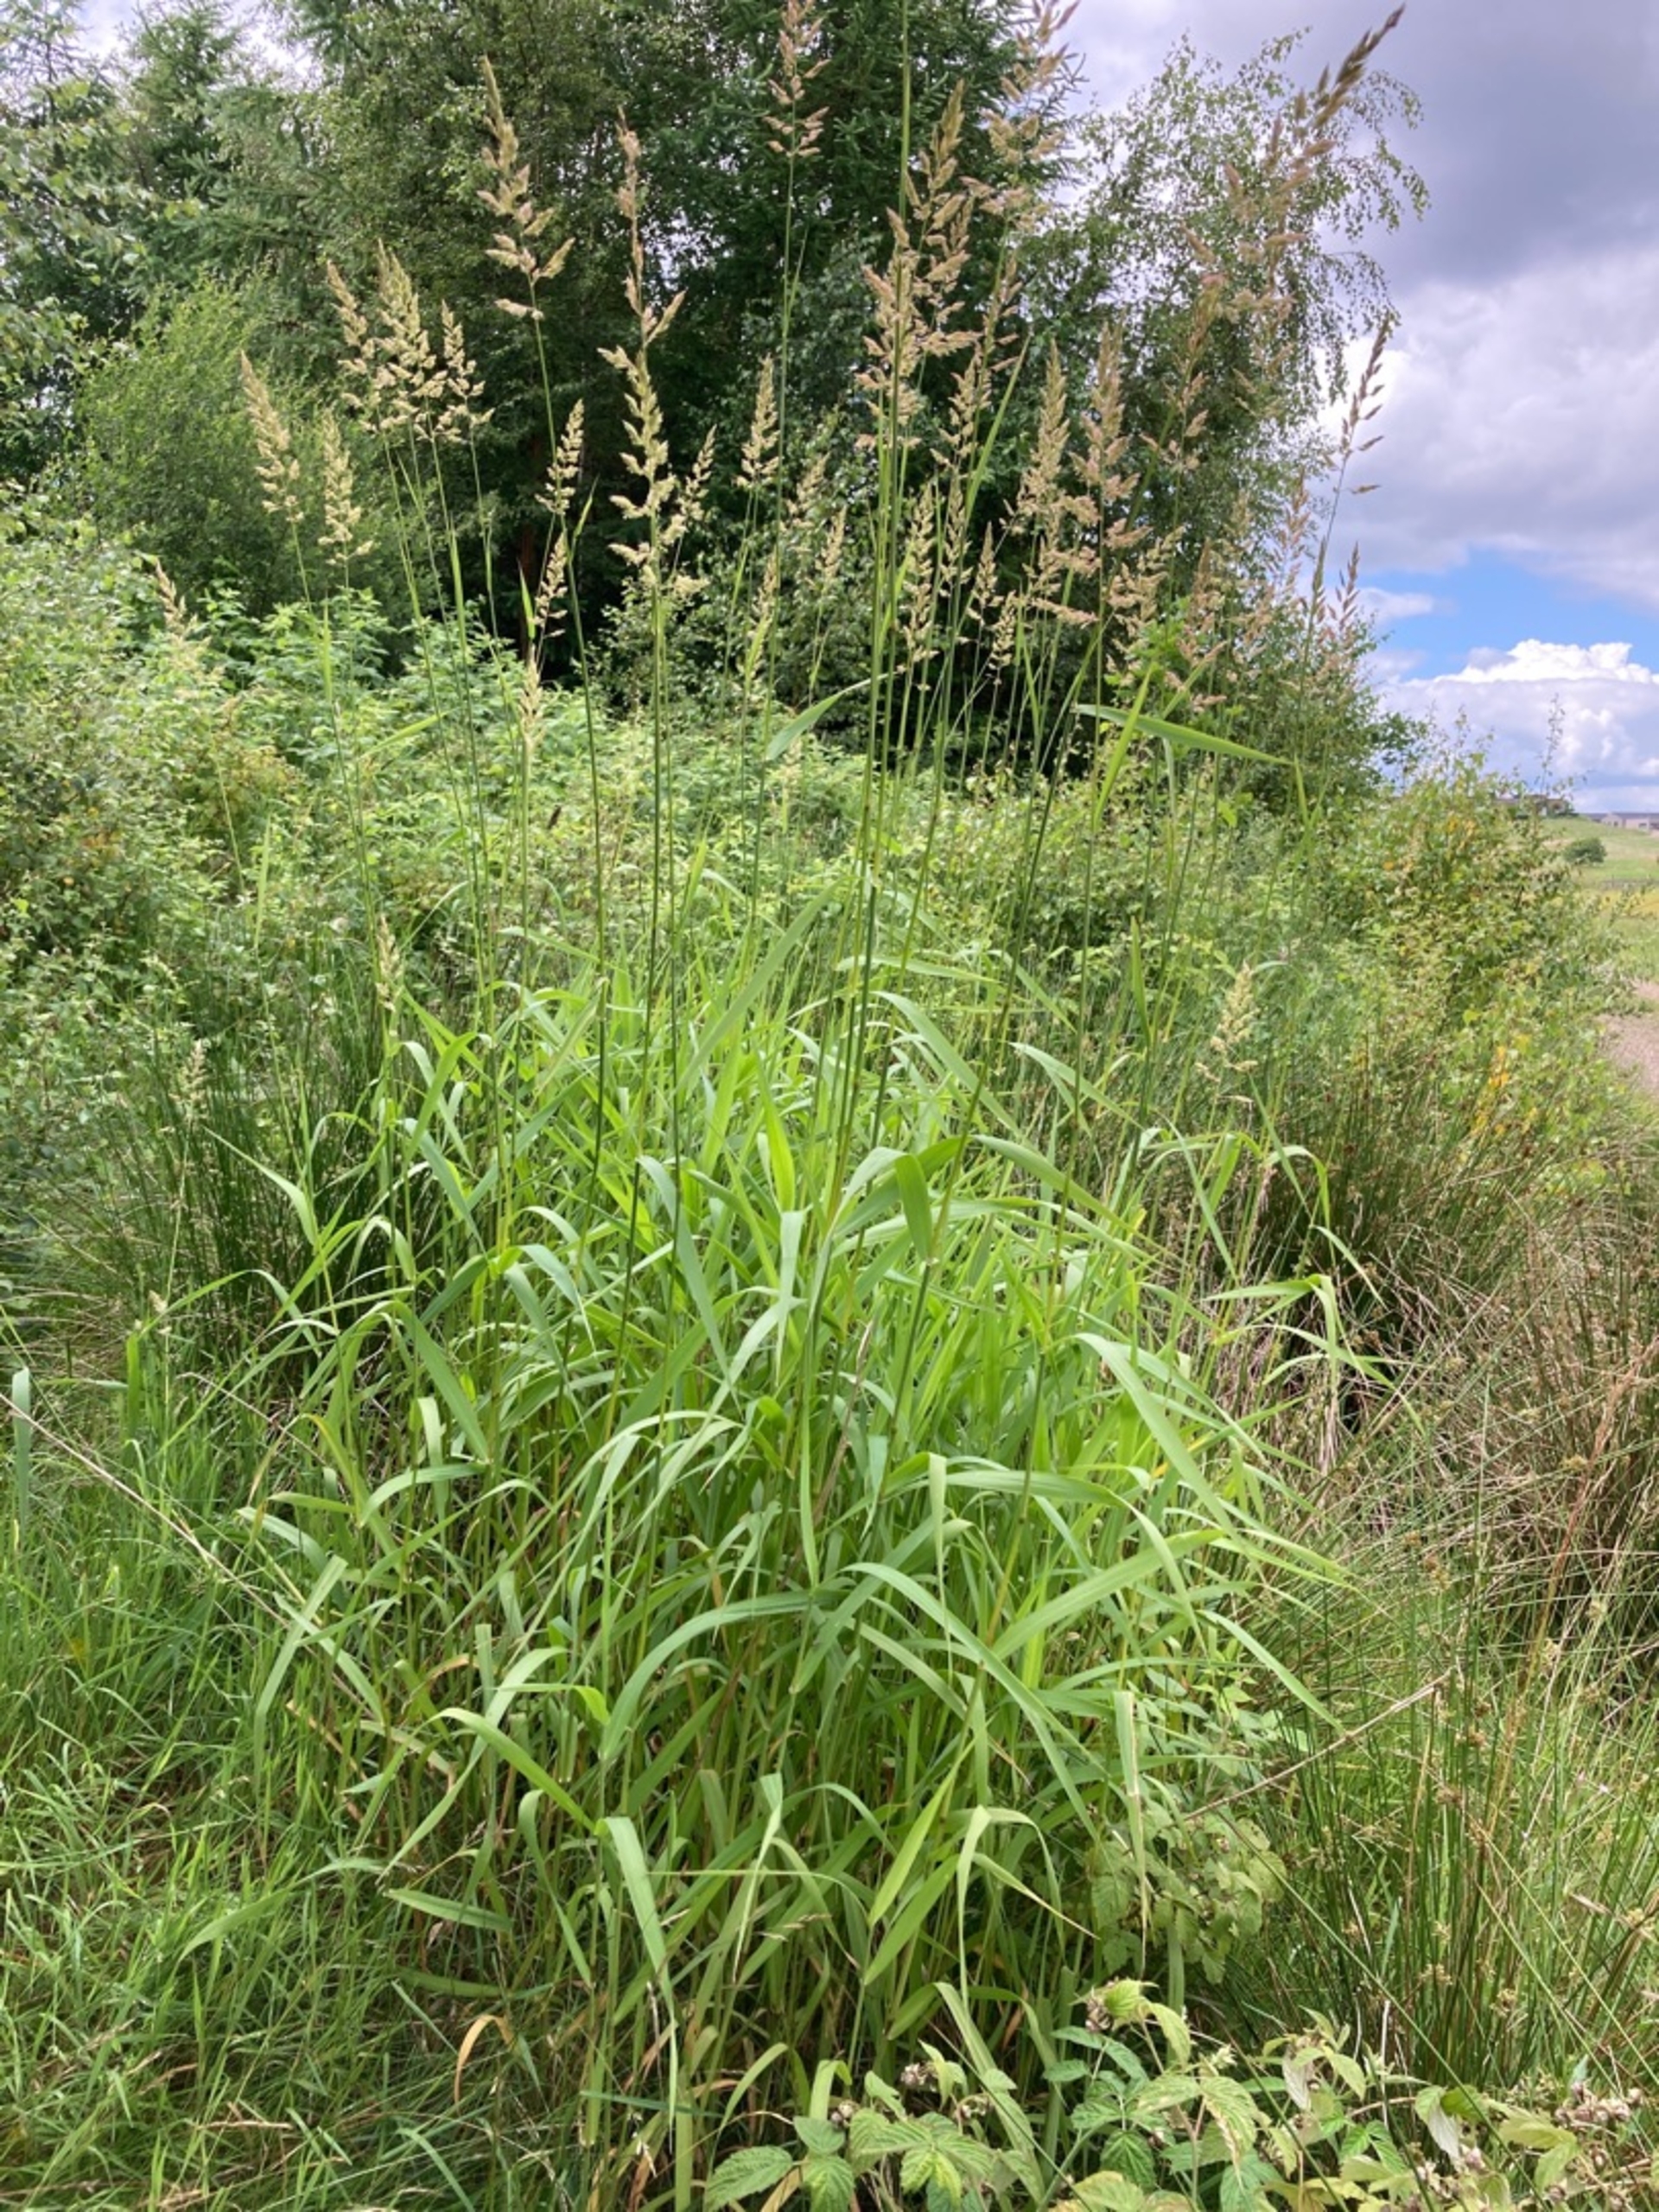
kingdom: Plantae
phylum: Tracheophyta
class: Liliopsida
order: Poales
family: Poaceae
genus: Phalaris
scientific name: Phalaris arundinacea
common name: Rørgræs
